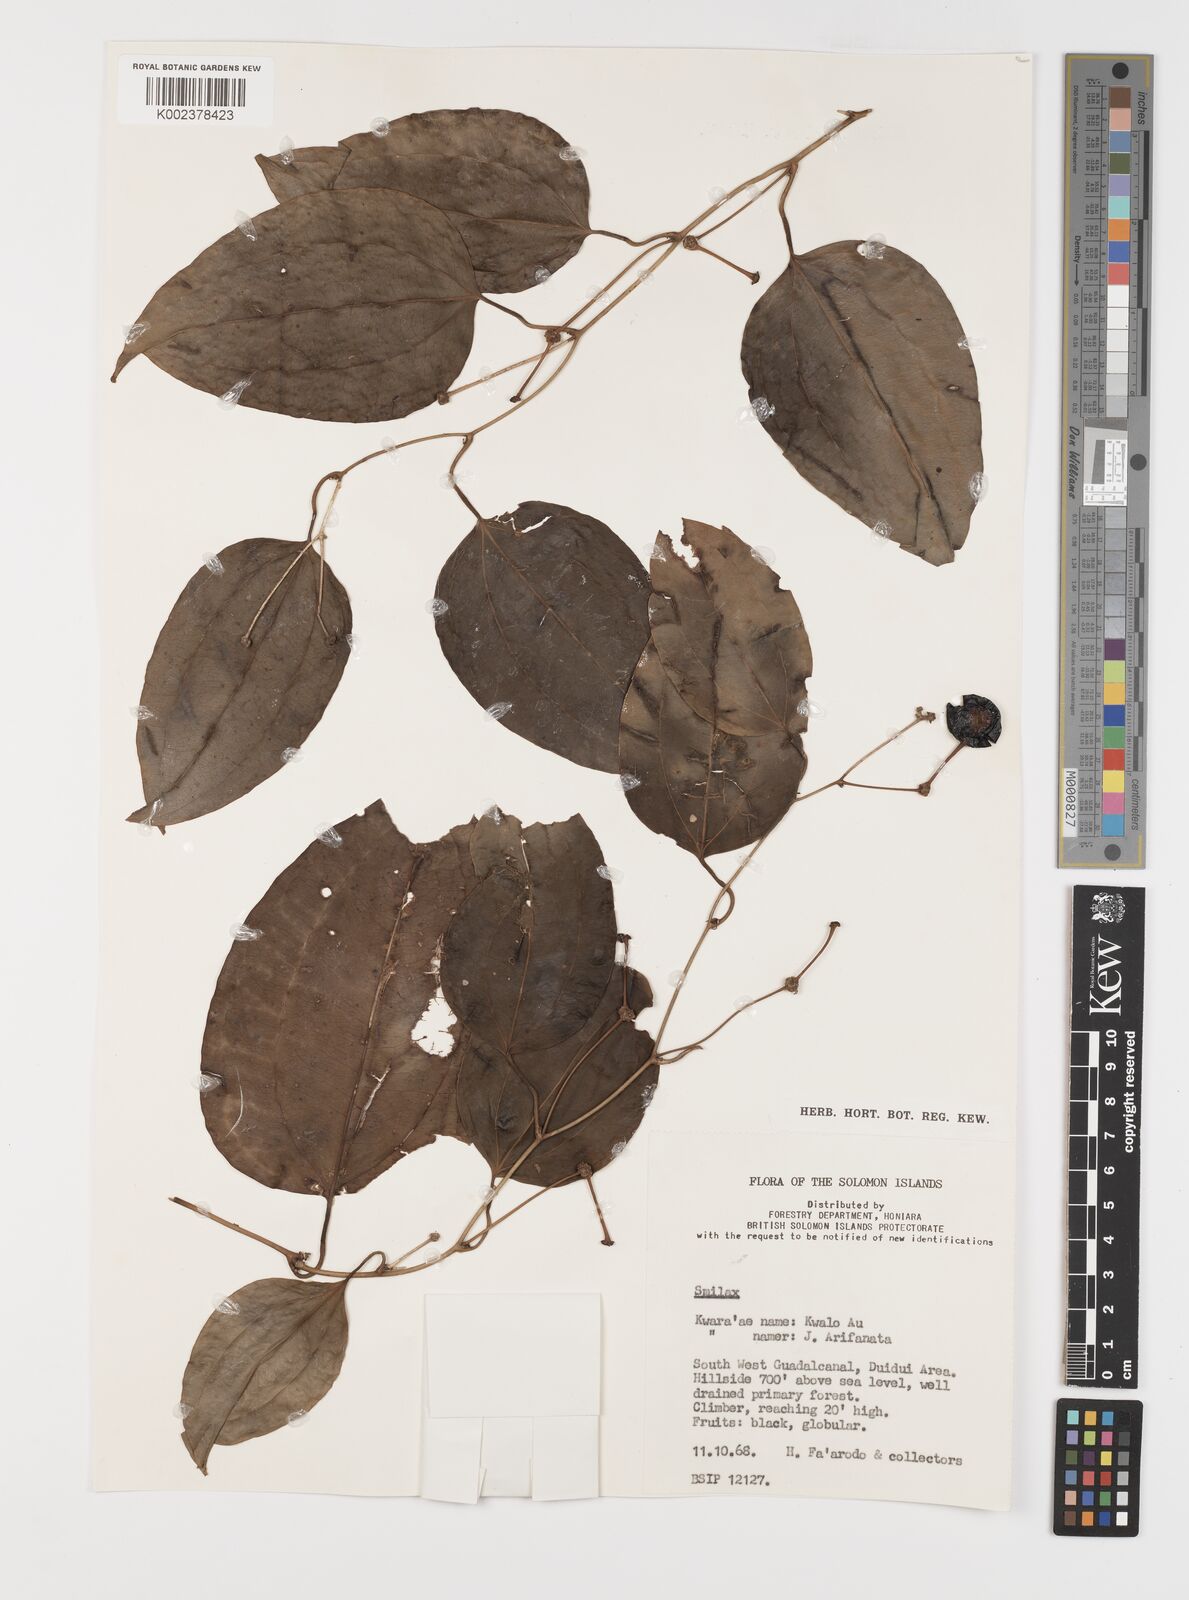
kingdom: Plantae
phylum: Tracheophyta
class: Liliopsida
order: Liliales
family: Smilacaceae
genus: Smilax
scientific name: Smilax
